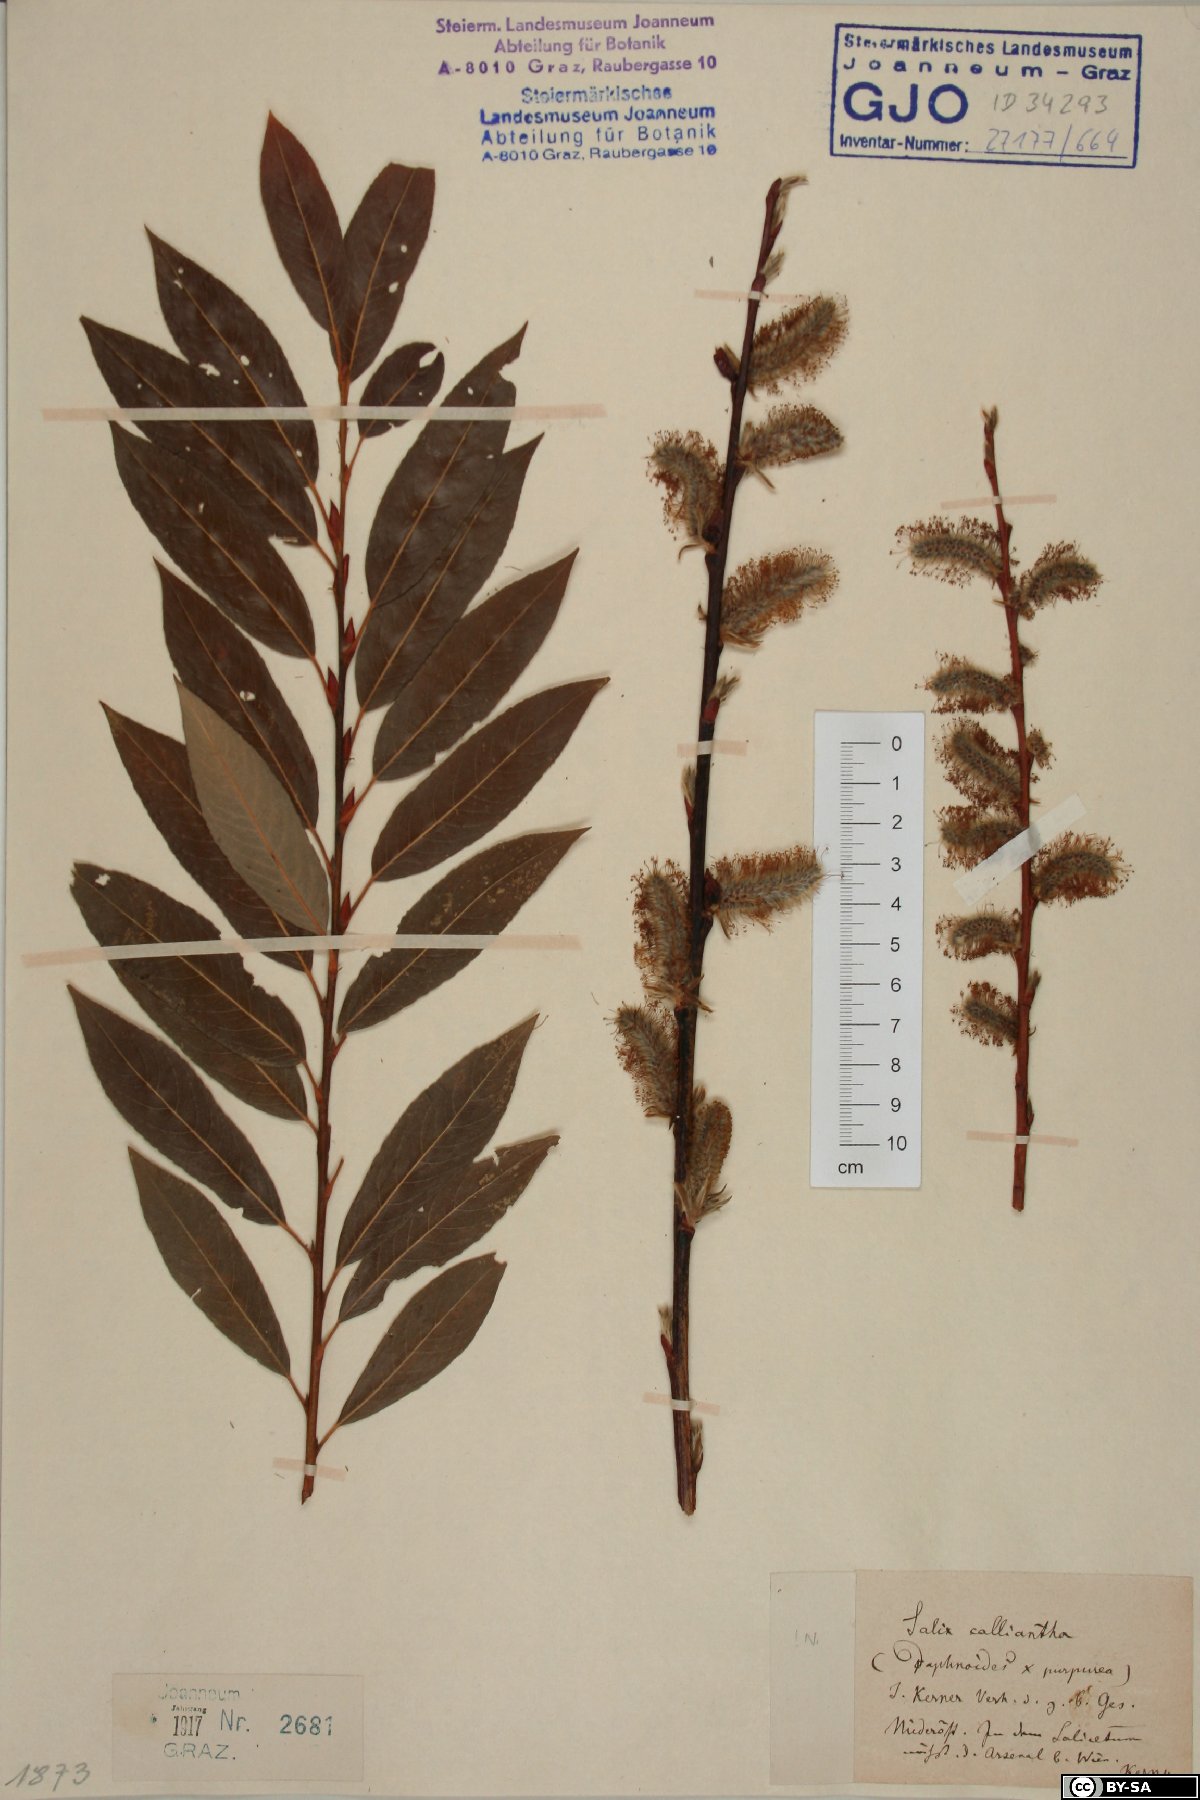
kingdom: Plantae
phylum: Tracheophyta
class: Magnoliopsida
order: Malpighiales
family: Salicaceae
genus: Salix
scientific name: Salix calliantha
